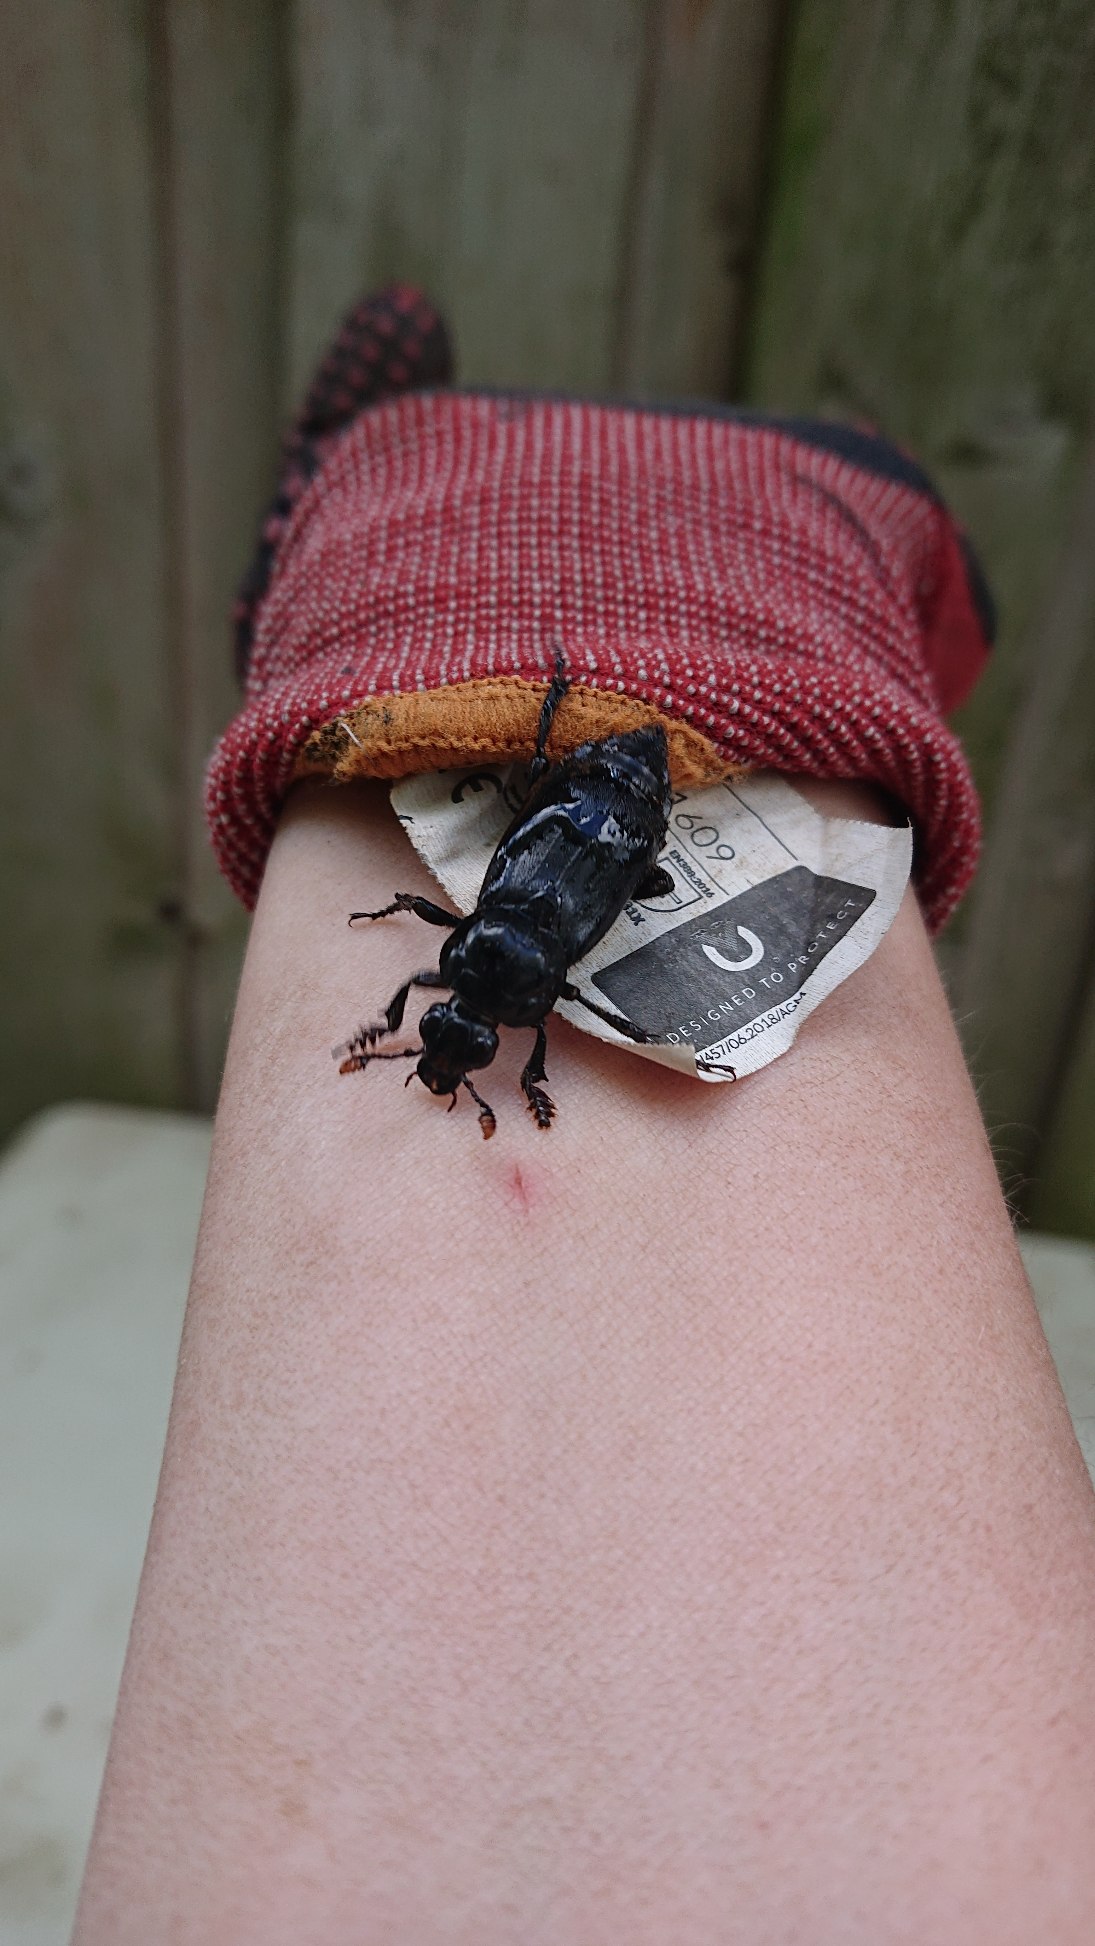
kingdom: Animalia
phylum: Arthropoda
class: Insecta
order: Coleoptera
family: Staphylinidae
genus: Nicrophorus
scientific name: Nicrophorus humator
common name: Sort ådselgraver
